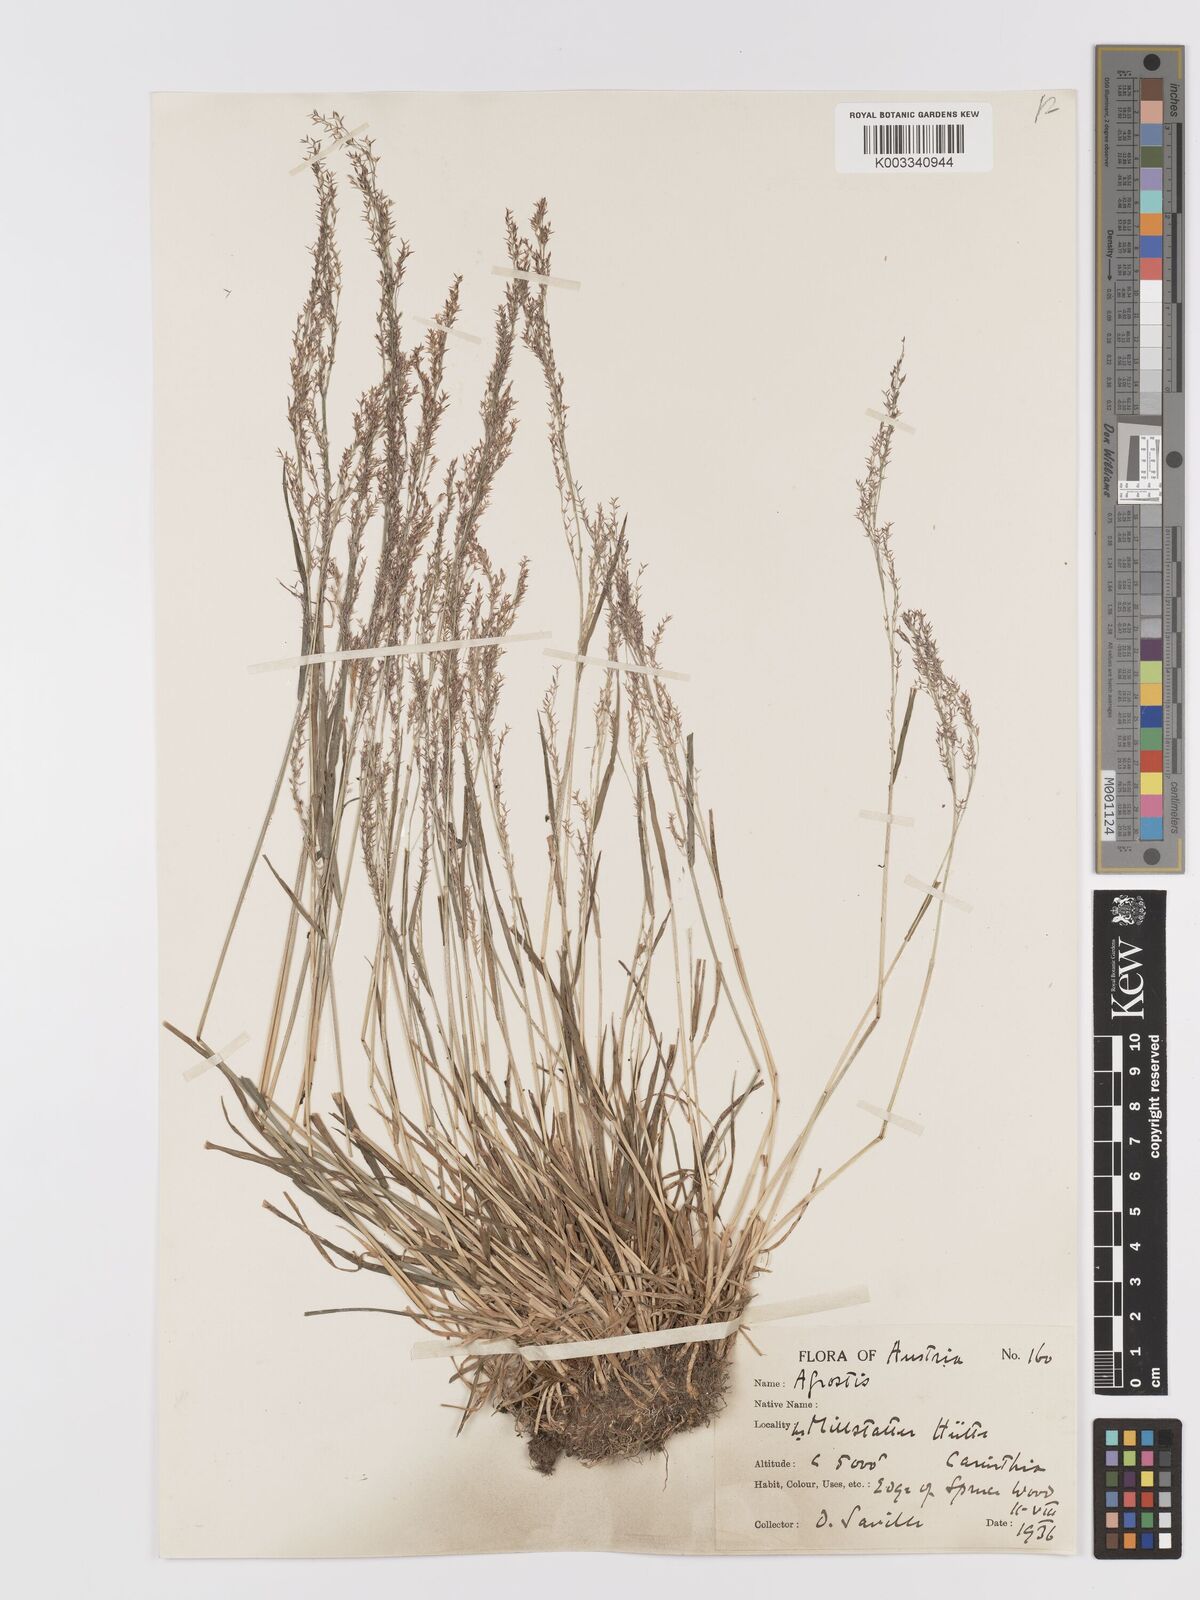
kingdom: Plantae
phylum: Tracheophyta
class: Liliopsida
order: Poales
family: Poaceae
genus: Agrostis
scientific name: Agrostis capillaris
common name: Colonial bentgrass
